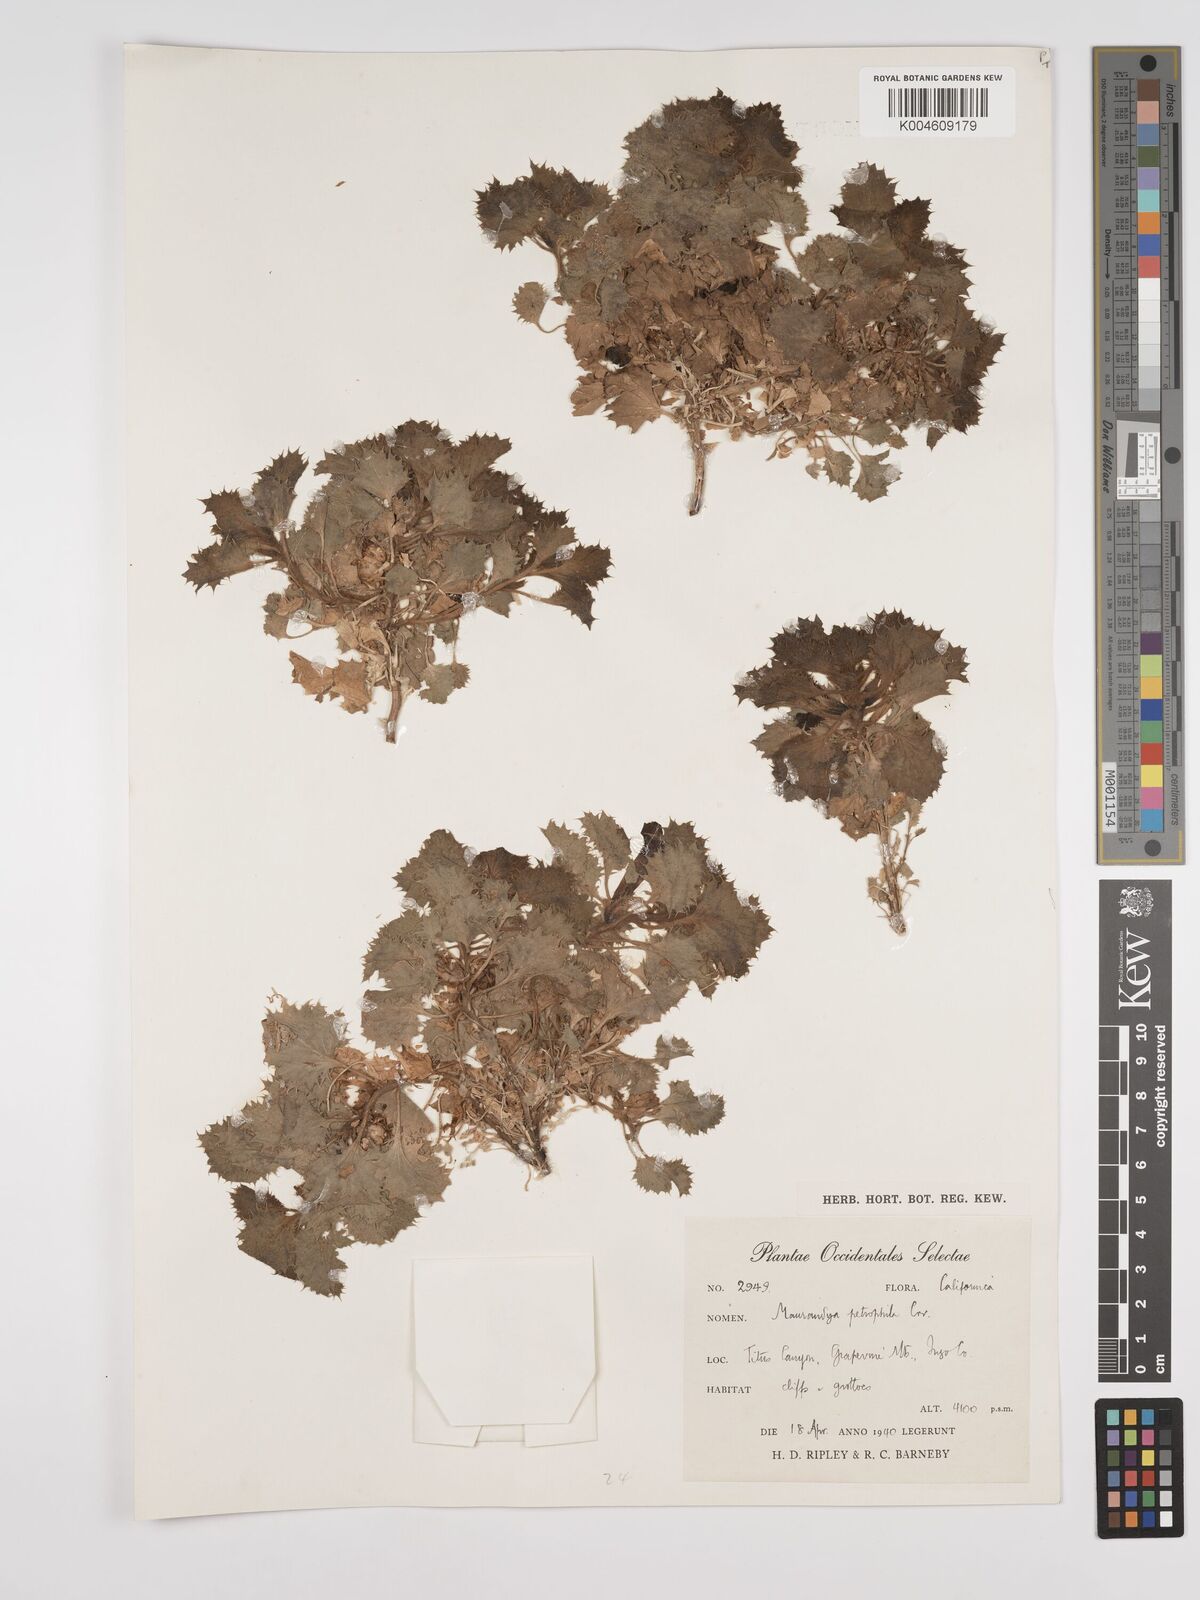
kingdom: Plantae
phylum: Tracheophyta
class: Magnoliopsida
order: Lamiales
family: Plantaginaceae
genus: Holmgrenanthe
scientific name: Holmgrenanthe petrophila
